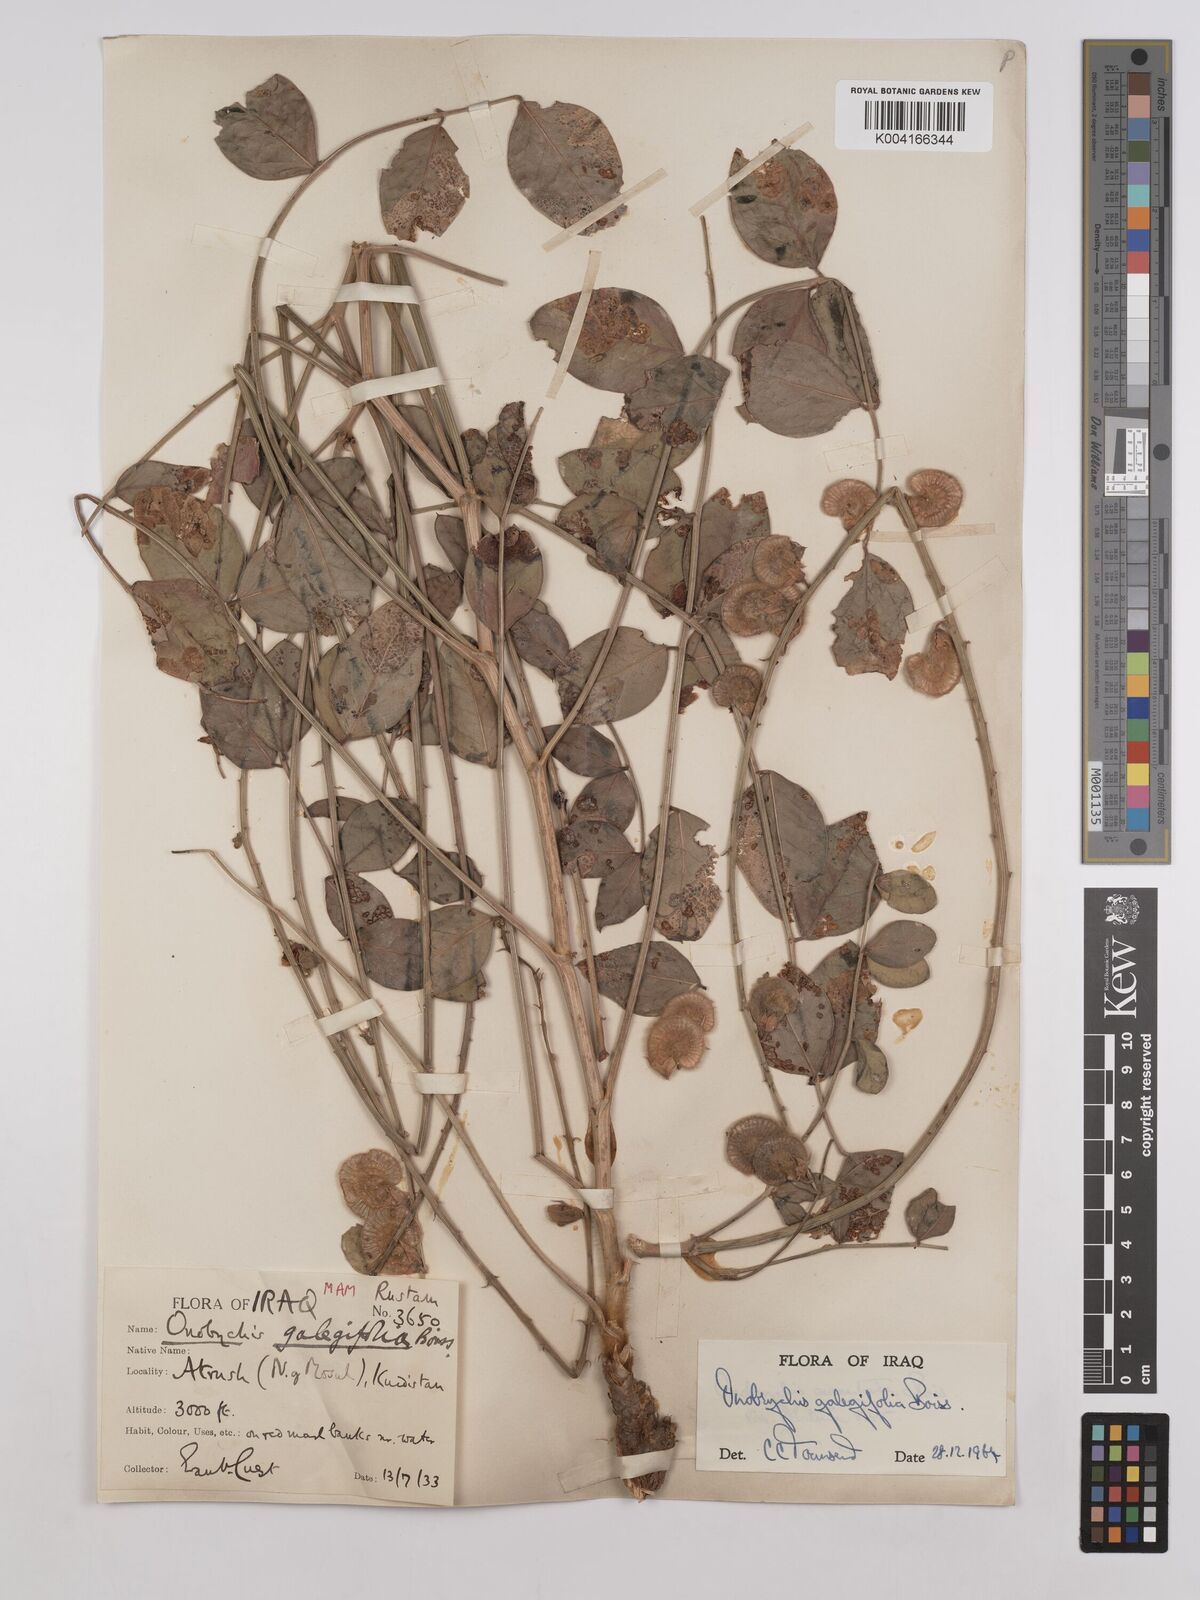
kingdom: Plantae
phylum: Tracheophyta
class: Magnoliopsida
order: Fabales
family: Fabaceae
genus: Onobrychis
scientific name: Onobrychis galegifolia
